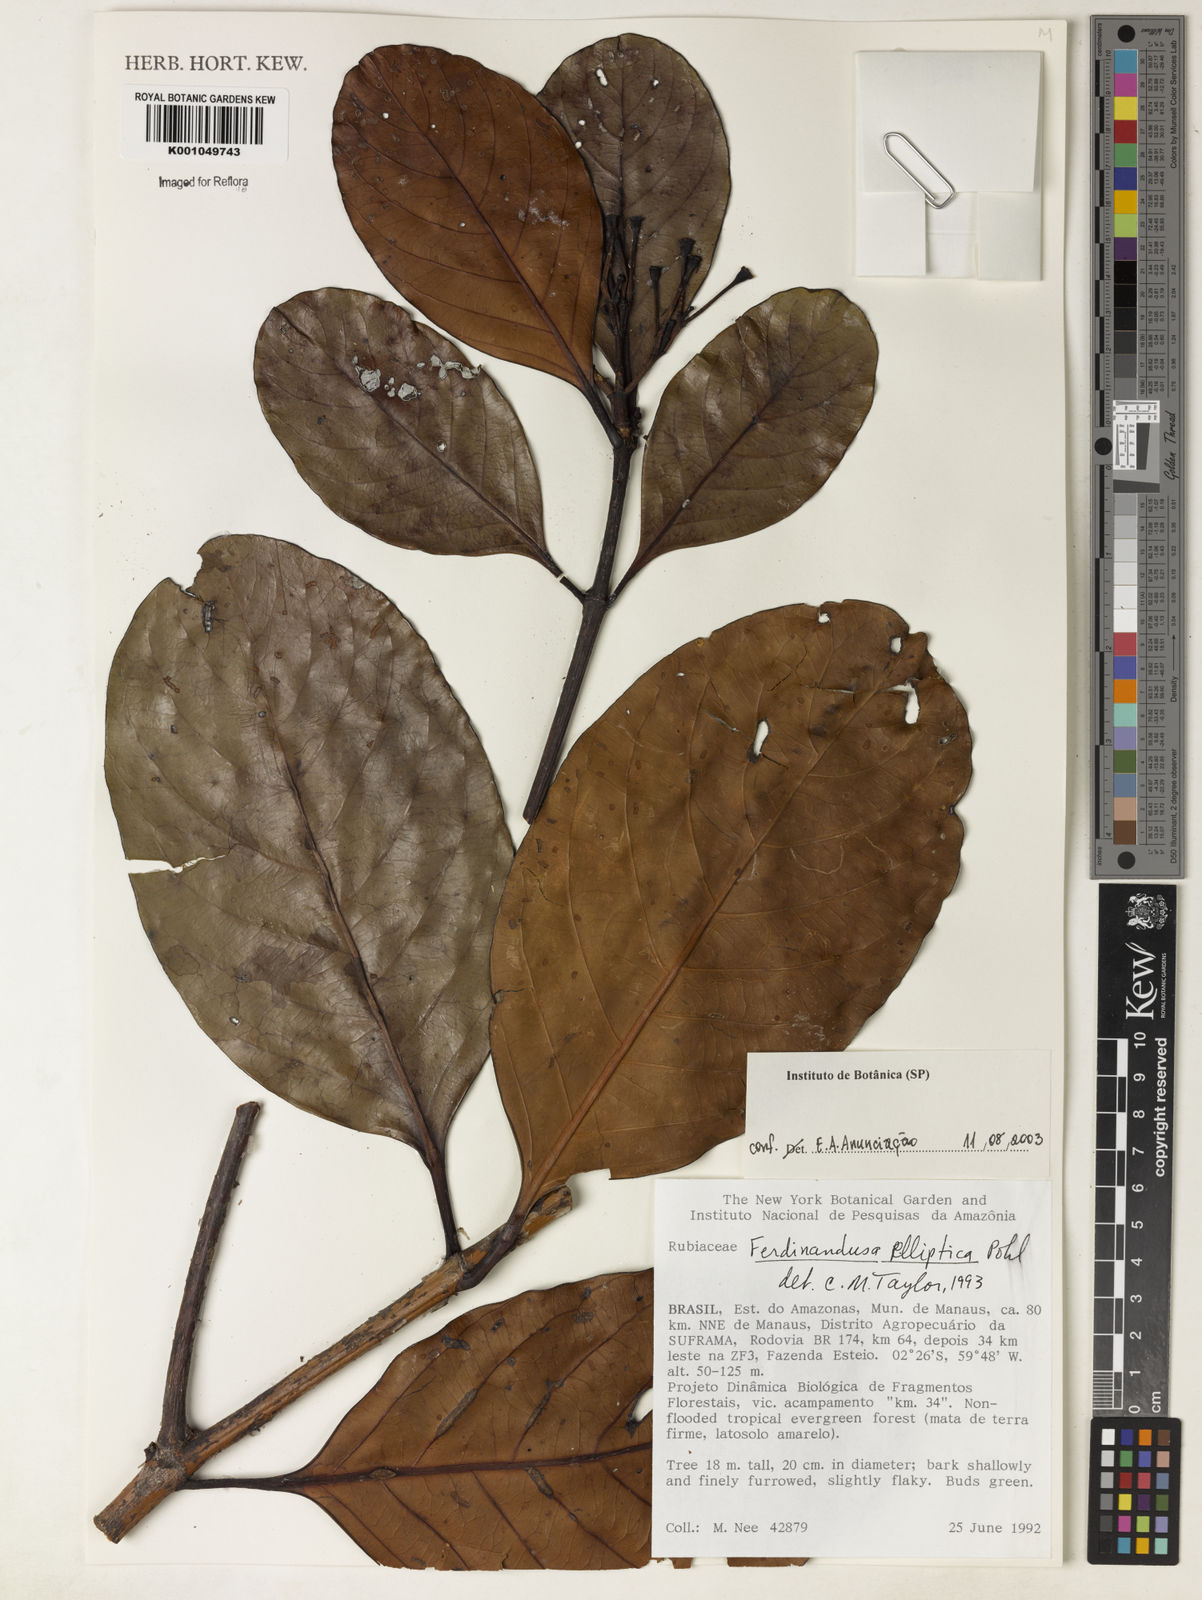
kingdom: Plantae
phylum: Tracheophyta
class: Magnoliopsida
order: Gentianales
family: Rubiaceae
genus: Ferdinandusa
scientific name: Ferdinandusa elliptica
